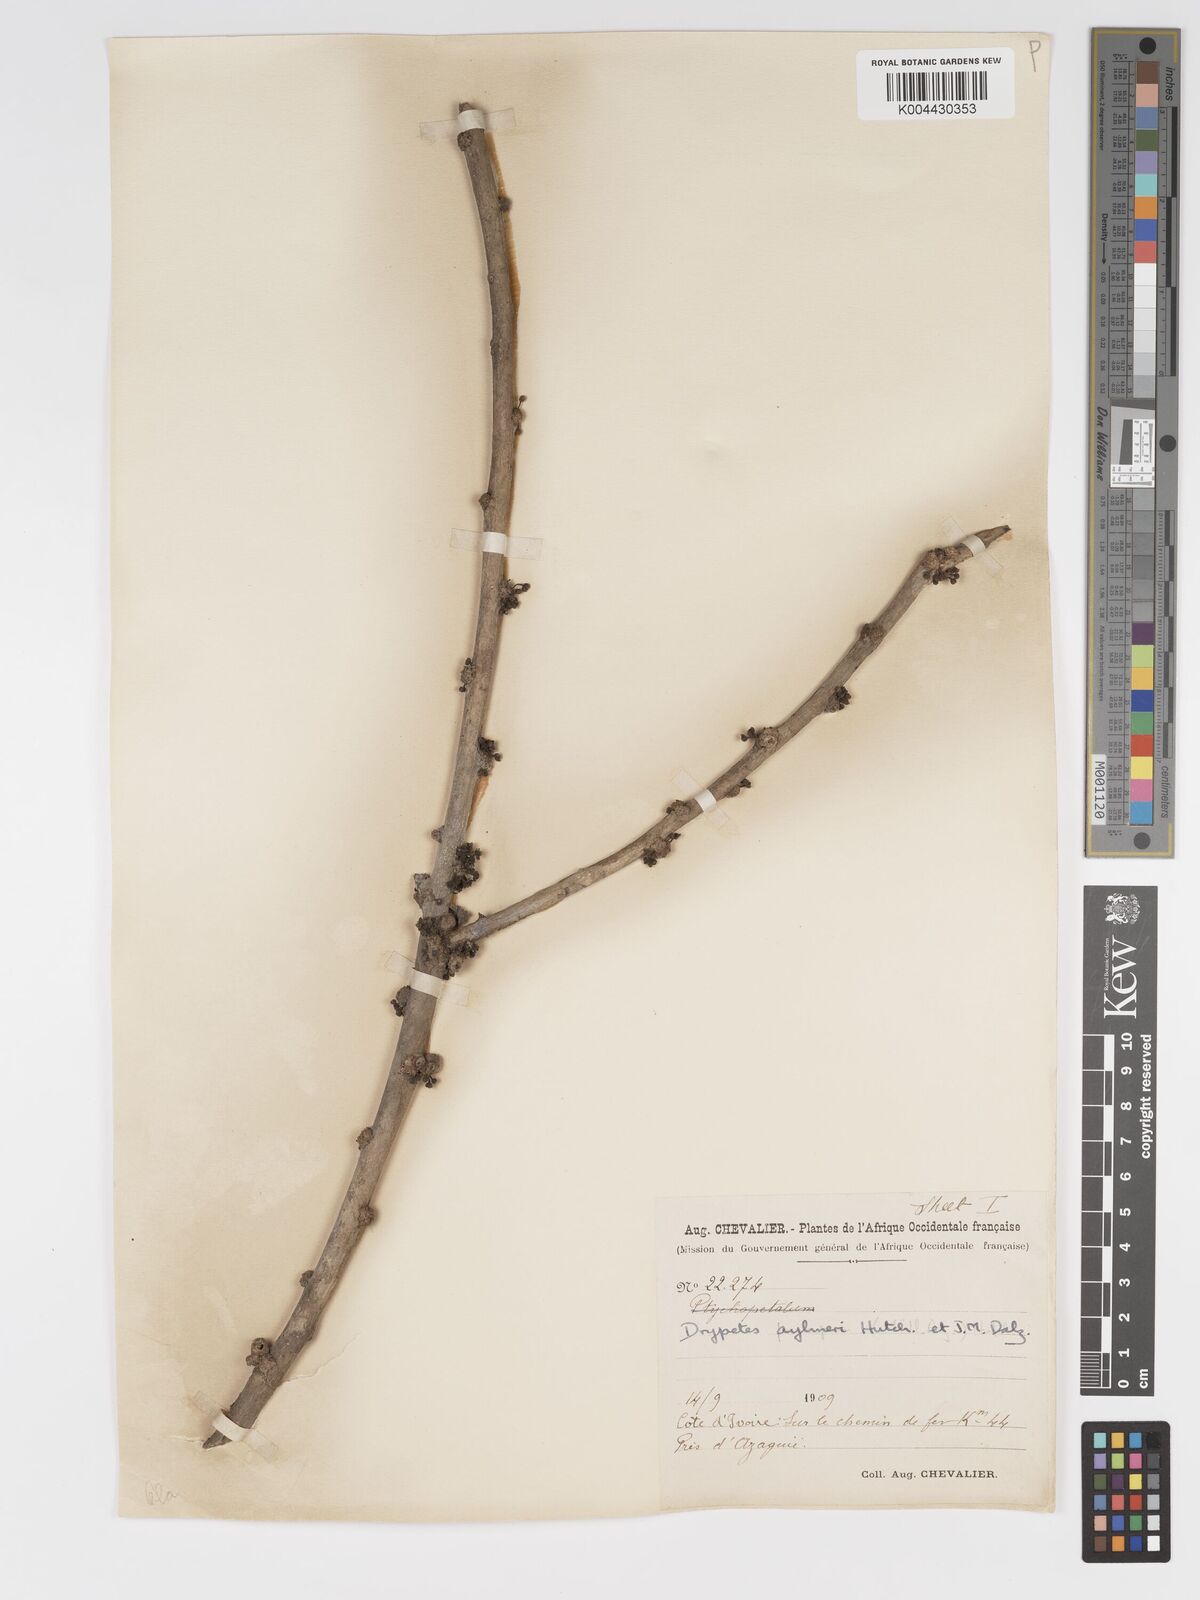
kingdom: Plantae
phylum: Tracheophyta
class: Magnoliopsida
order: Malpighiales
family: Putranjivaceae
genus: Drypetes
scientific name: Drypetes aylmeri
